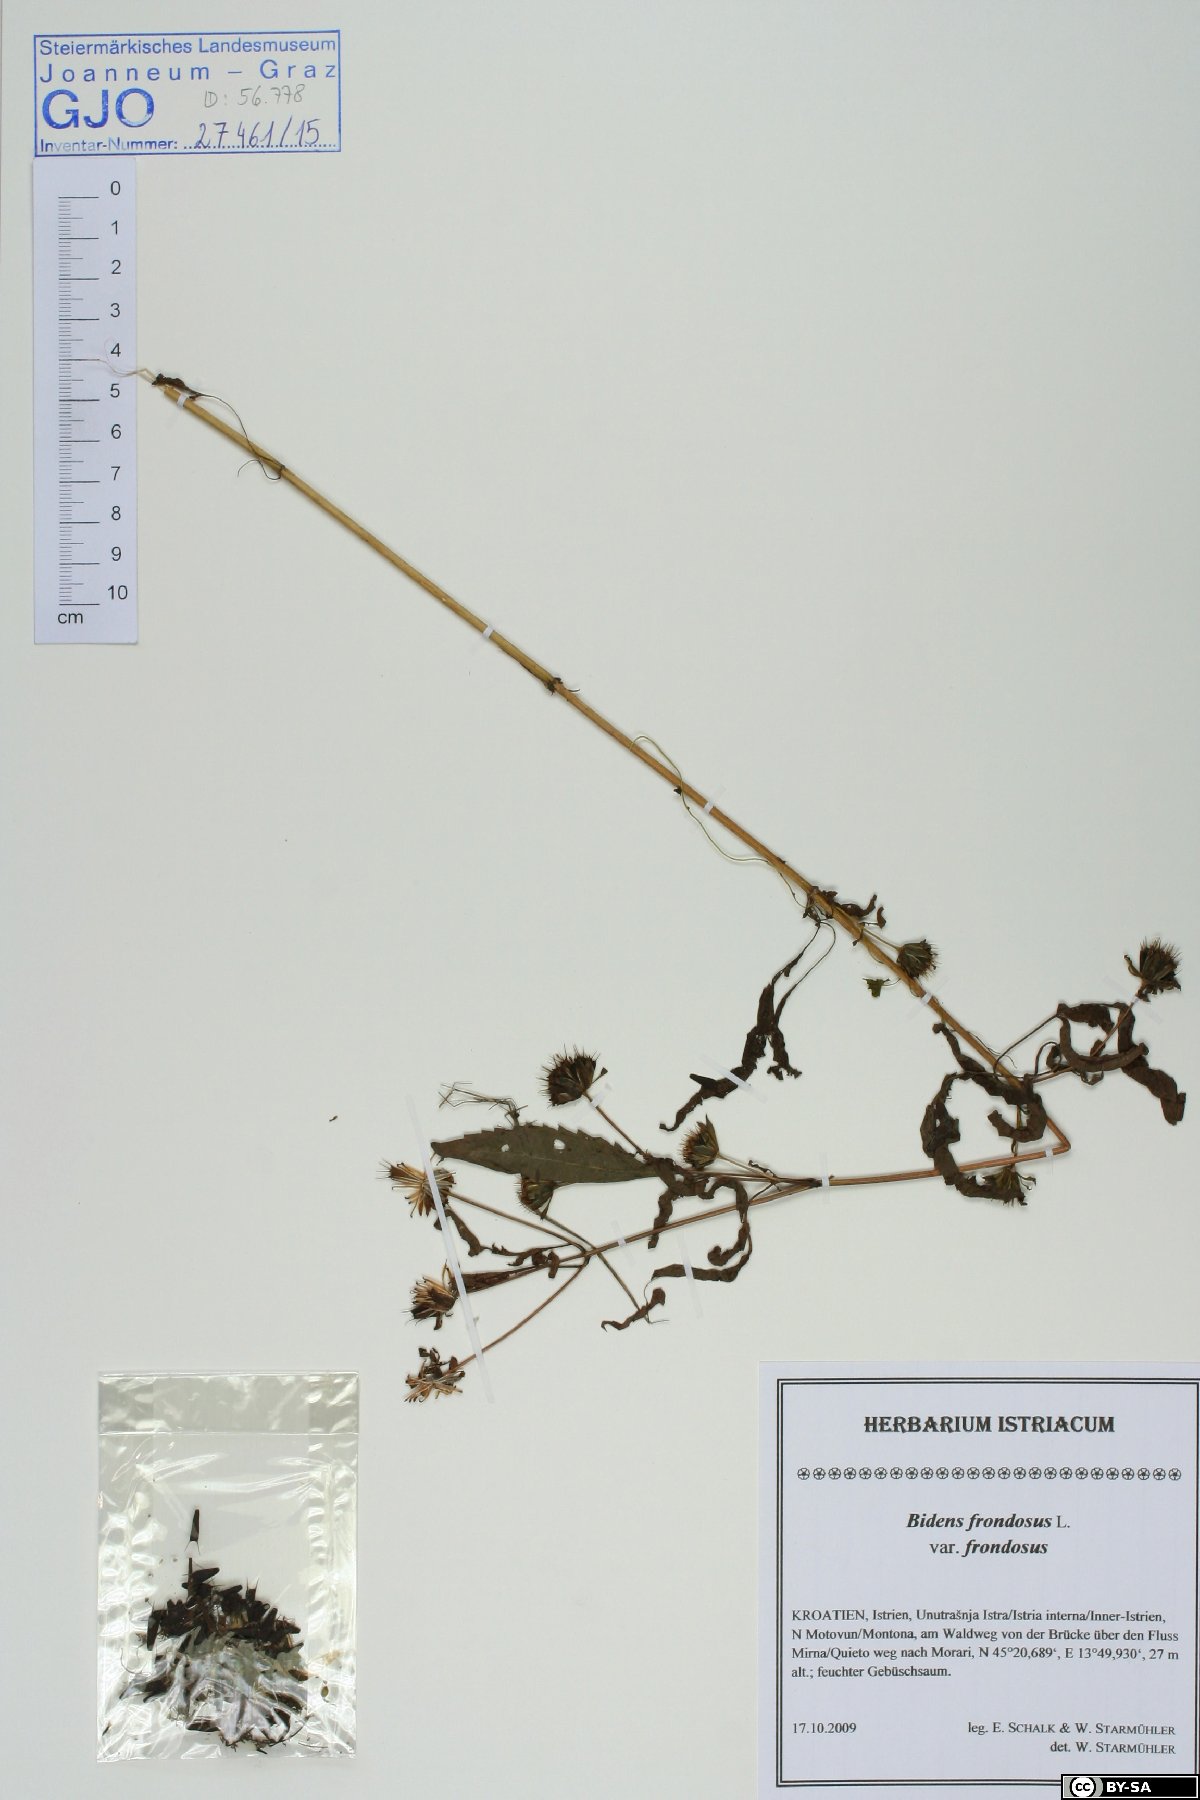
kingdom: Plantae
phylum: Tracheophyta
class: Magnoliopsida
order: Asterales
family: Asteraceae
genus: Bidens
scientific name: Bidens frondosa
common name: Beggarticks
